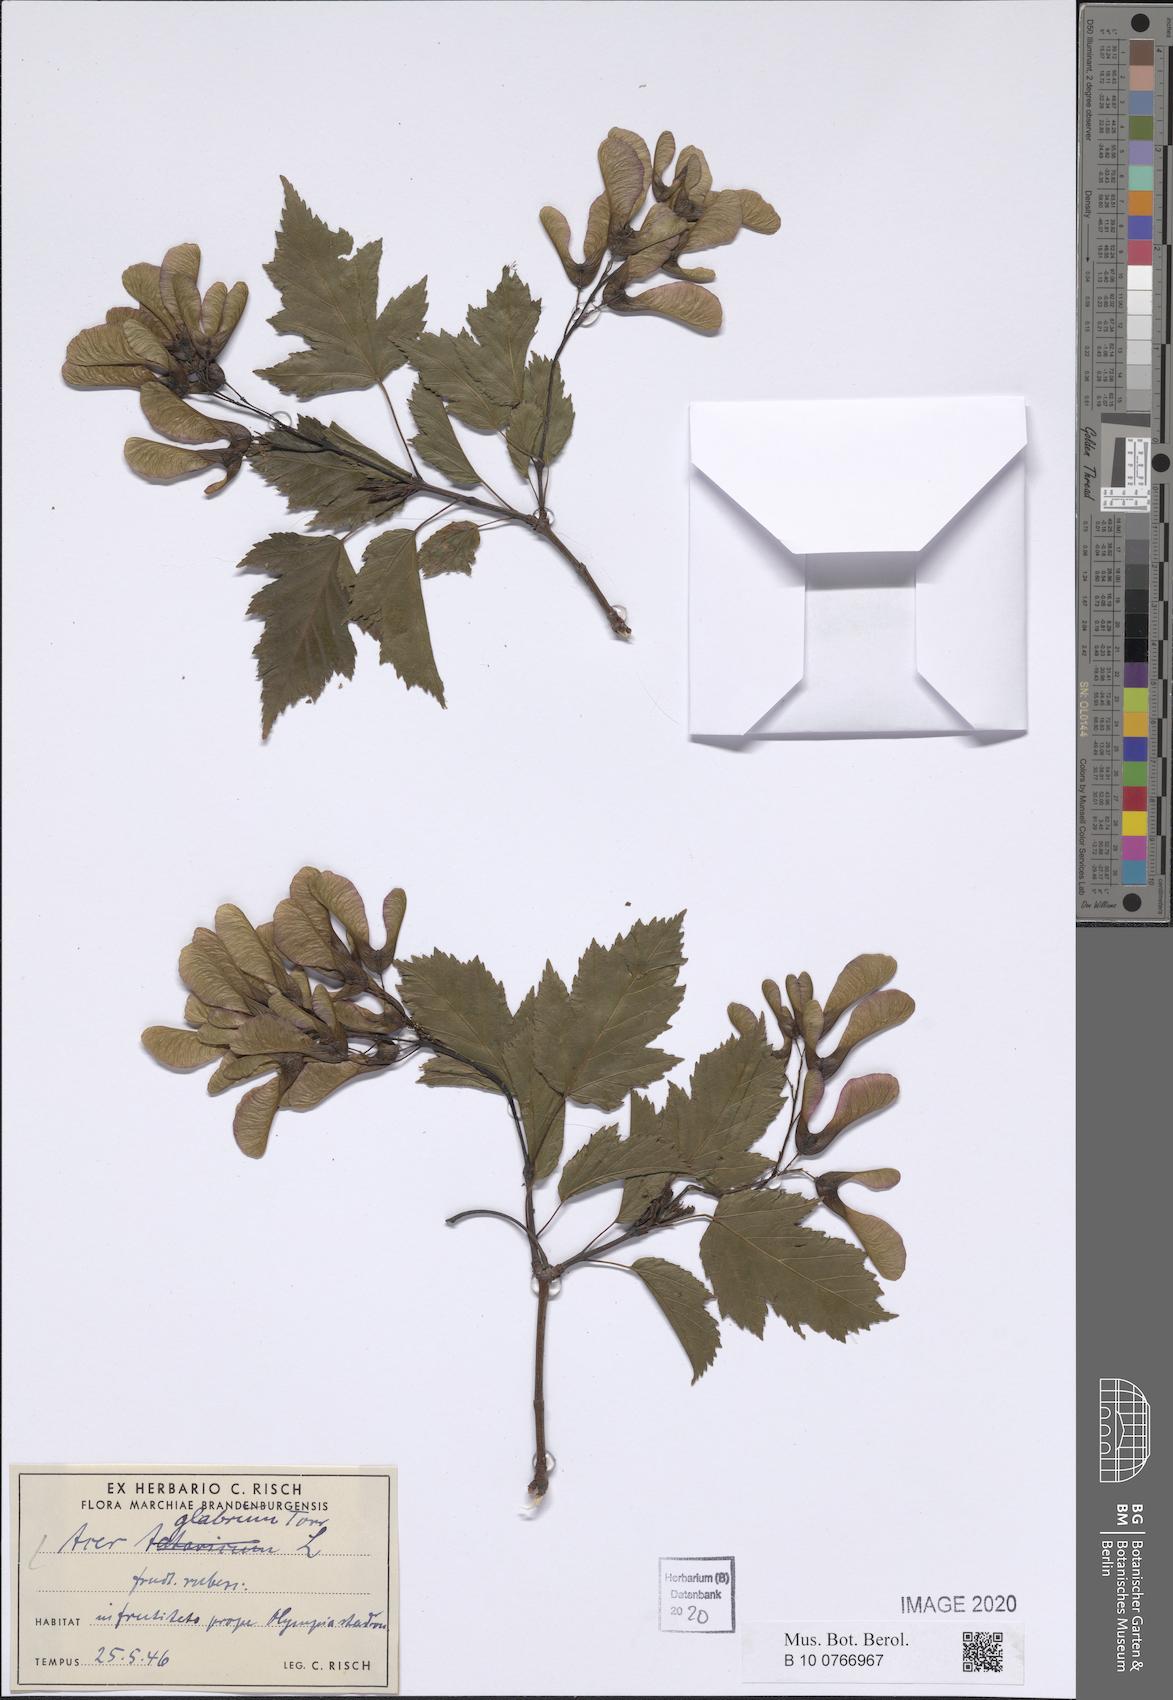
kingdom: Plantae
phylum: Tracheophyta
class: Magnoliopsida
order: Sapindales
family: Sapindaceae
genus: Acer
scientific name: Acer glabrum
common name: Rocky mountain maple
